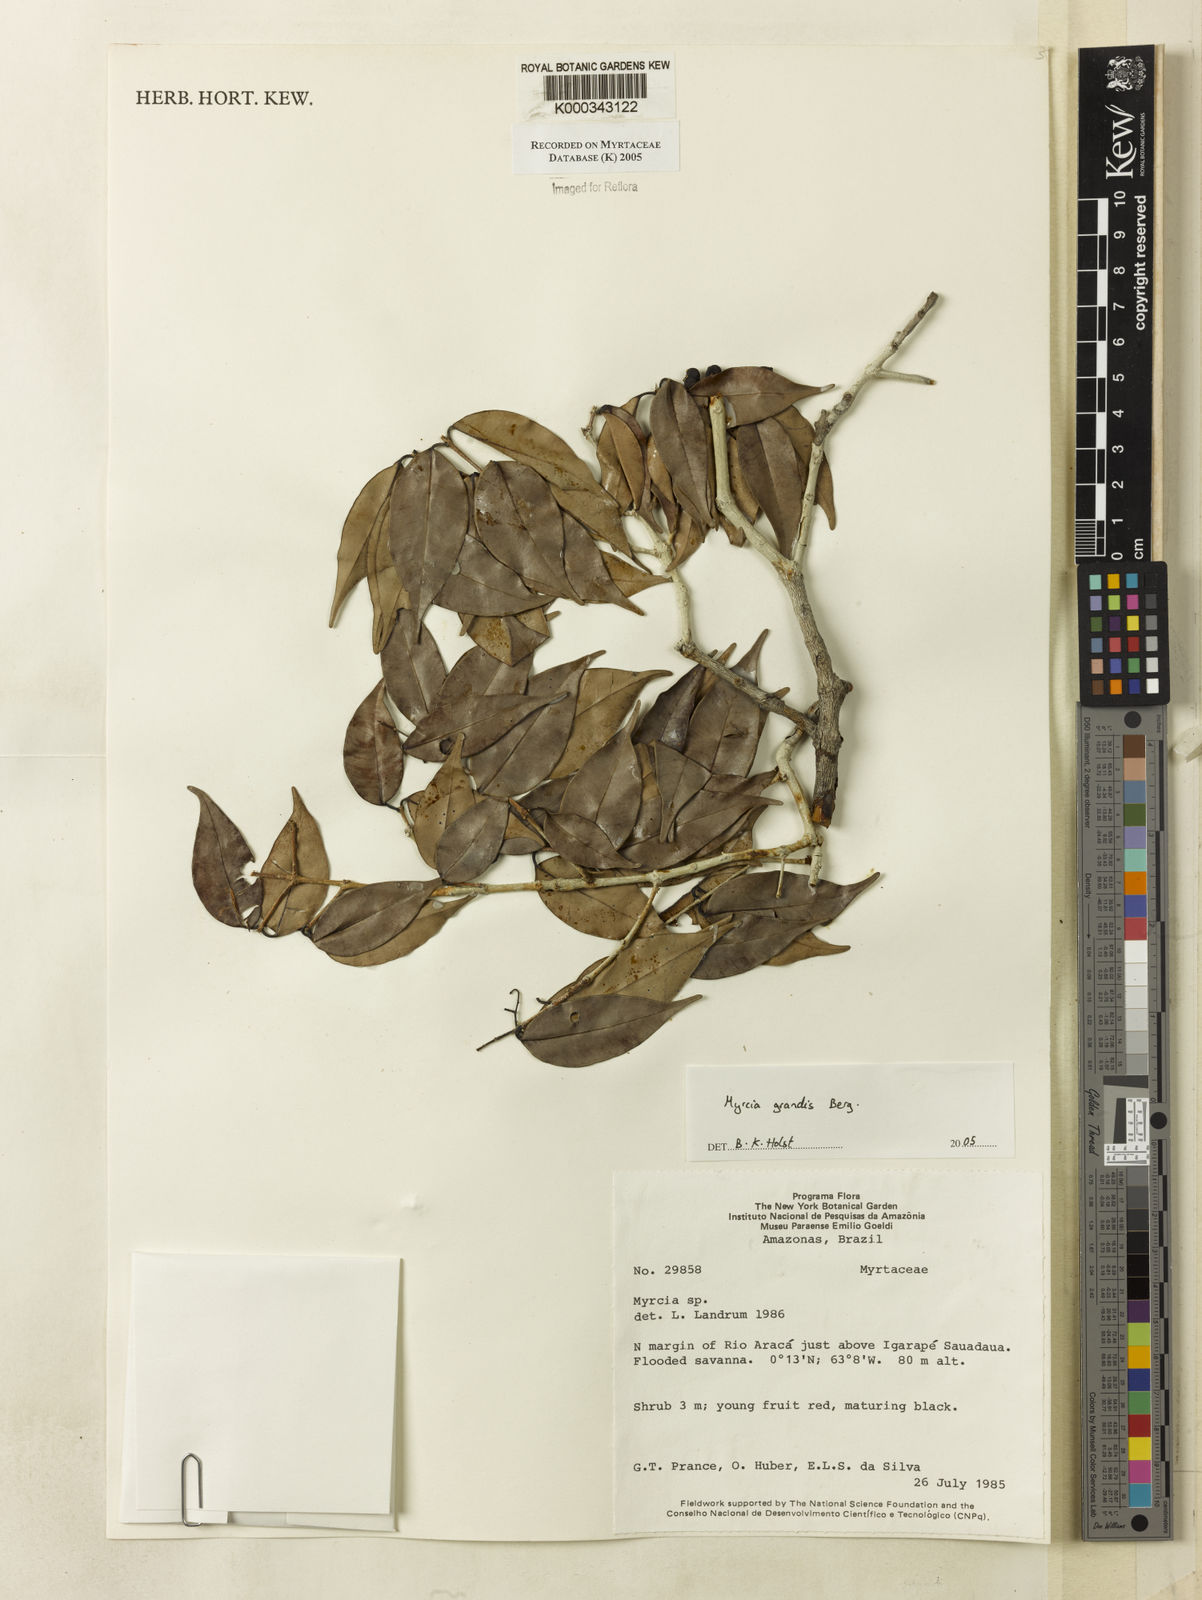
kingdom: Plantae
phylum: Tracheophyta
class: Magnoliopsida
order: Myrtales
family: Myrtaceae
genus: Myrcia
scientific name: Myrcia grandis
